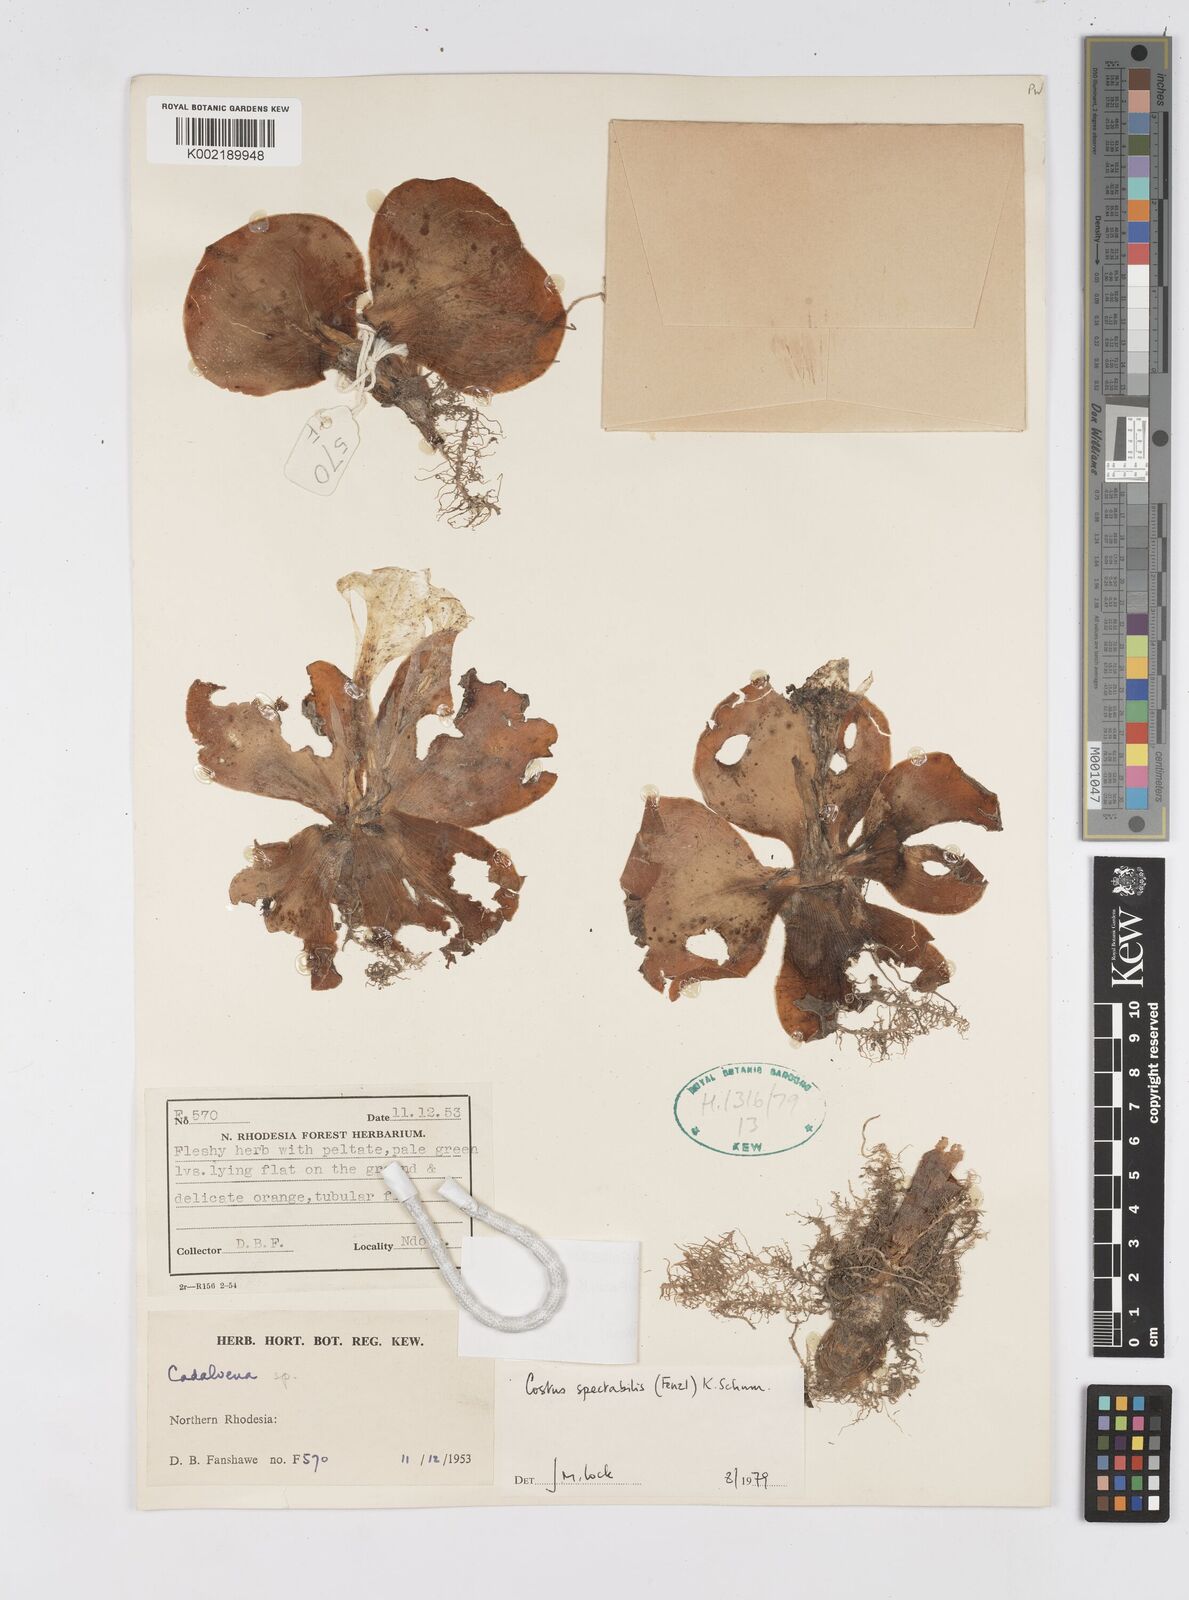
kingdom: Plantae
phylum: Tracheophyta
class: Liliopsida
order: Zingiberales
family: Costaceae
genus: Costus
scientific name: Costus spectabilis
